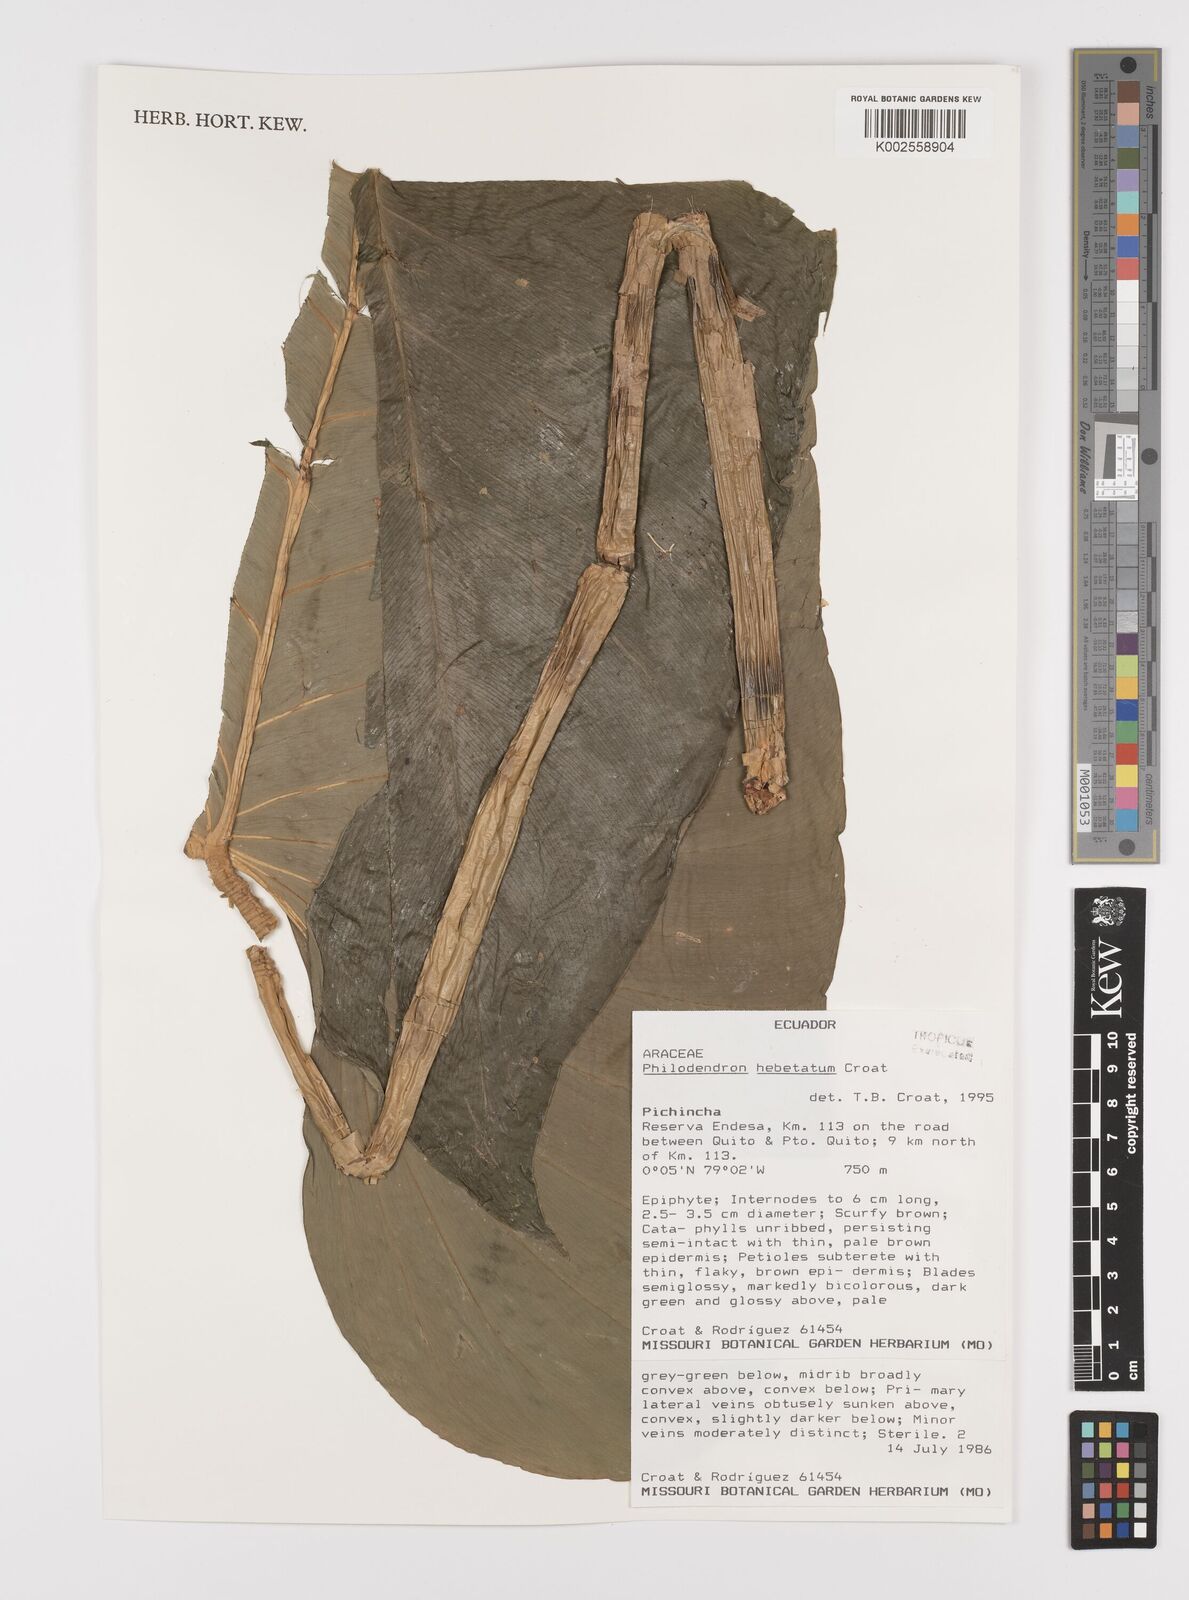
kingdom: Plantae
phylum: Tracheophyta
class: Liliopsida
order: Alismatales
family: Araceae
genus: Philodendron
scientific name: Philodendron hebetatum
